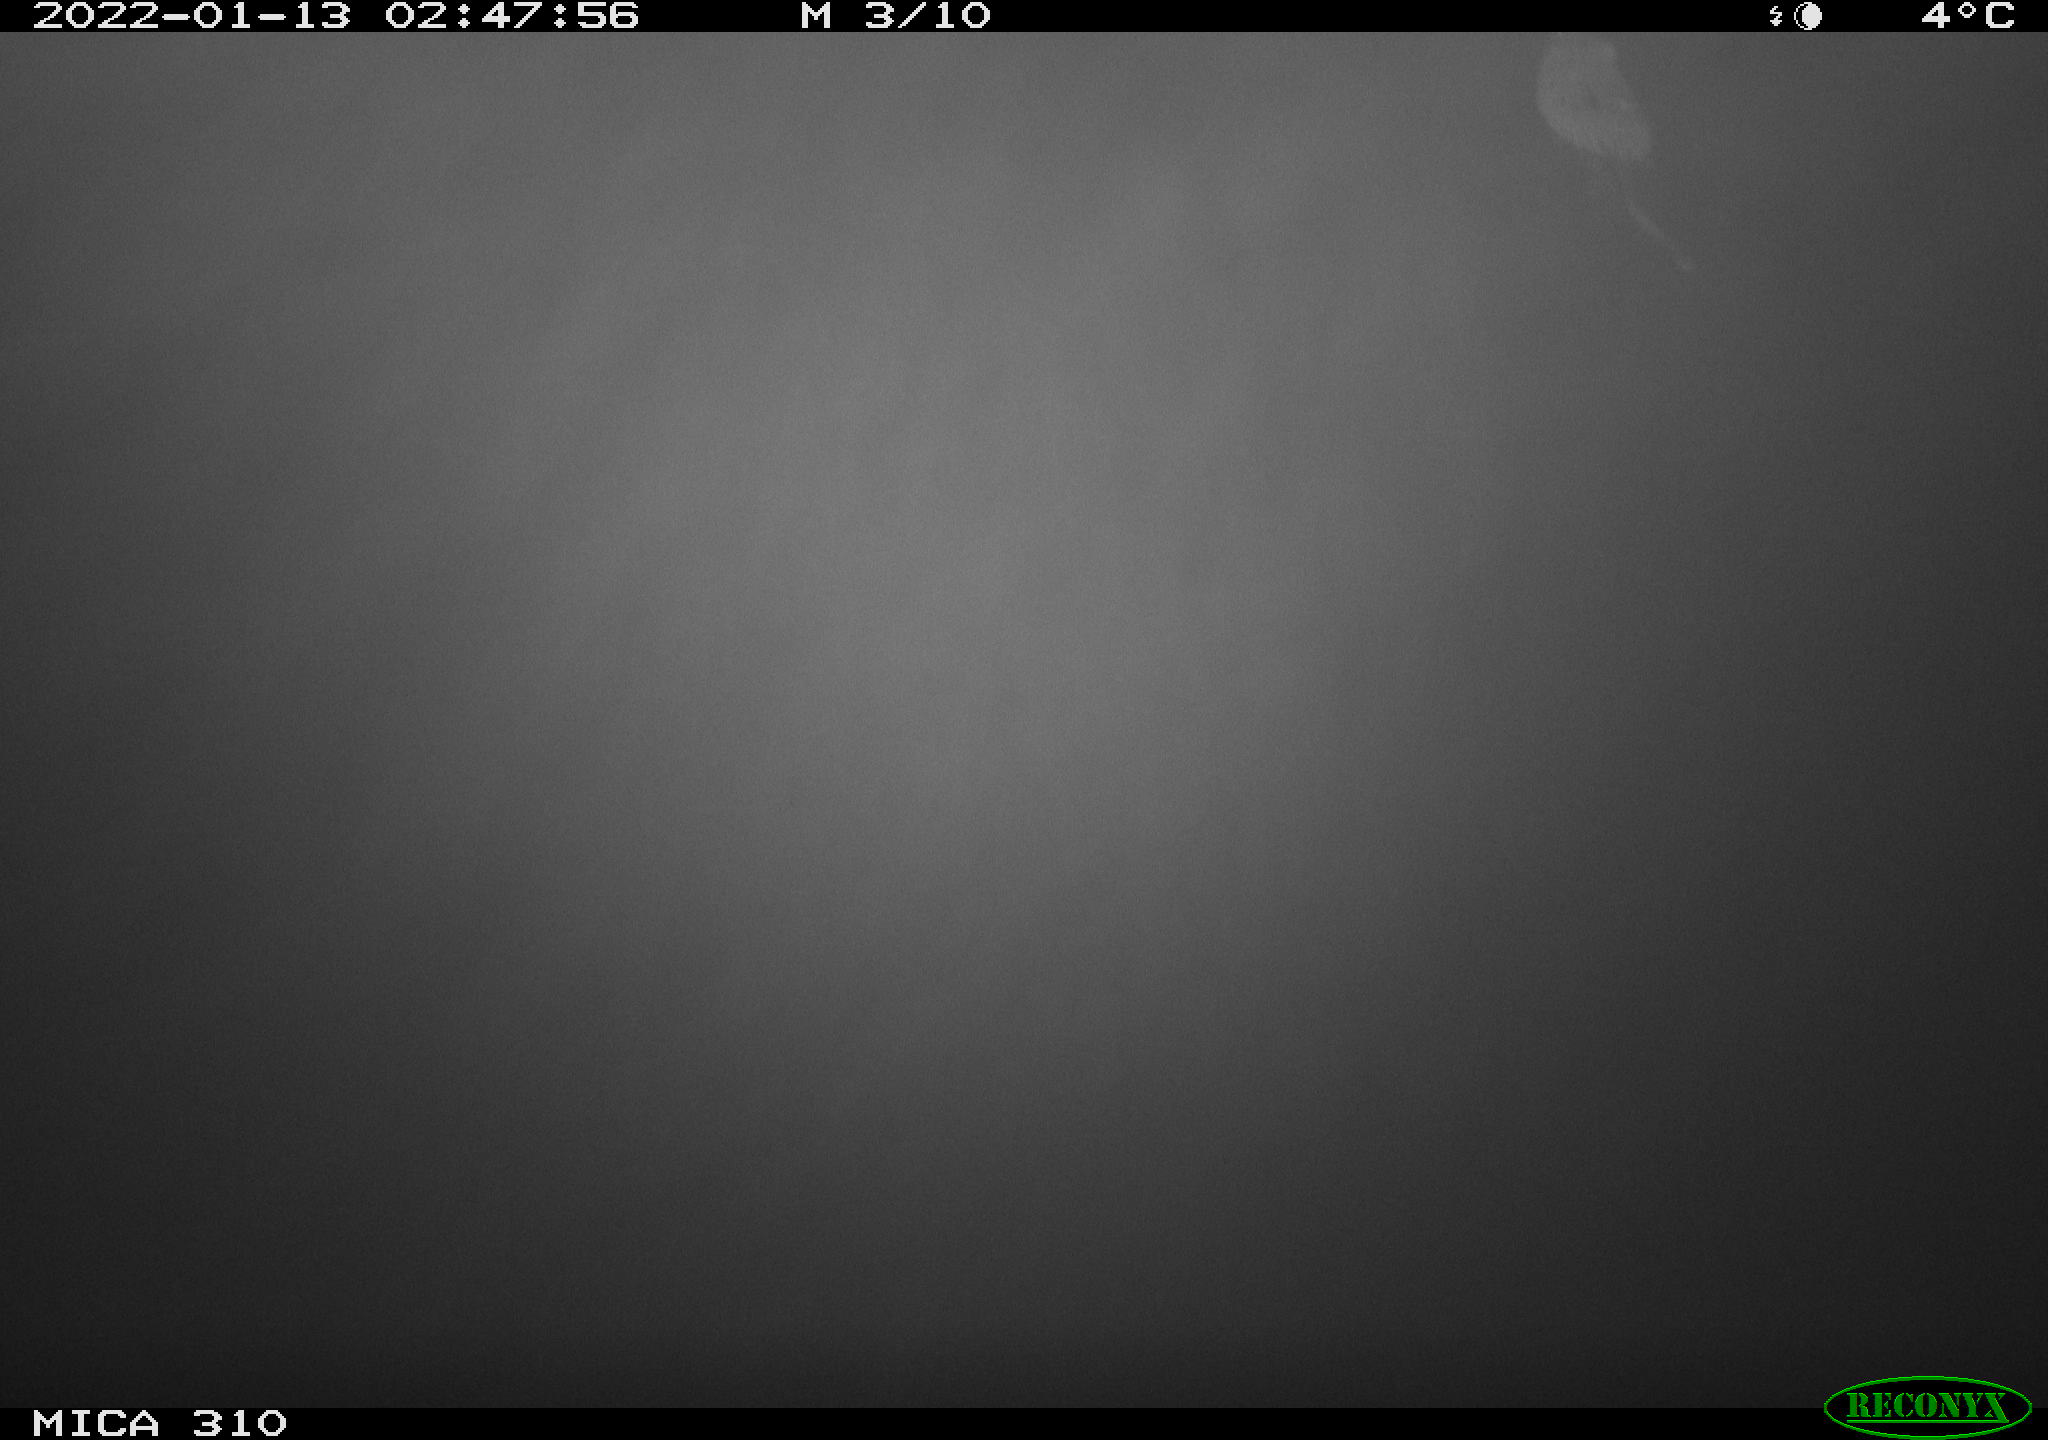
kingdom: Animalia
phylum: Chordata
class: Mammalia
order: Rodentia
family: Cricetidae
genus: Ondatra
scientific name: Ondatra zibethicus
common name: Muskrat
